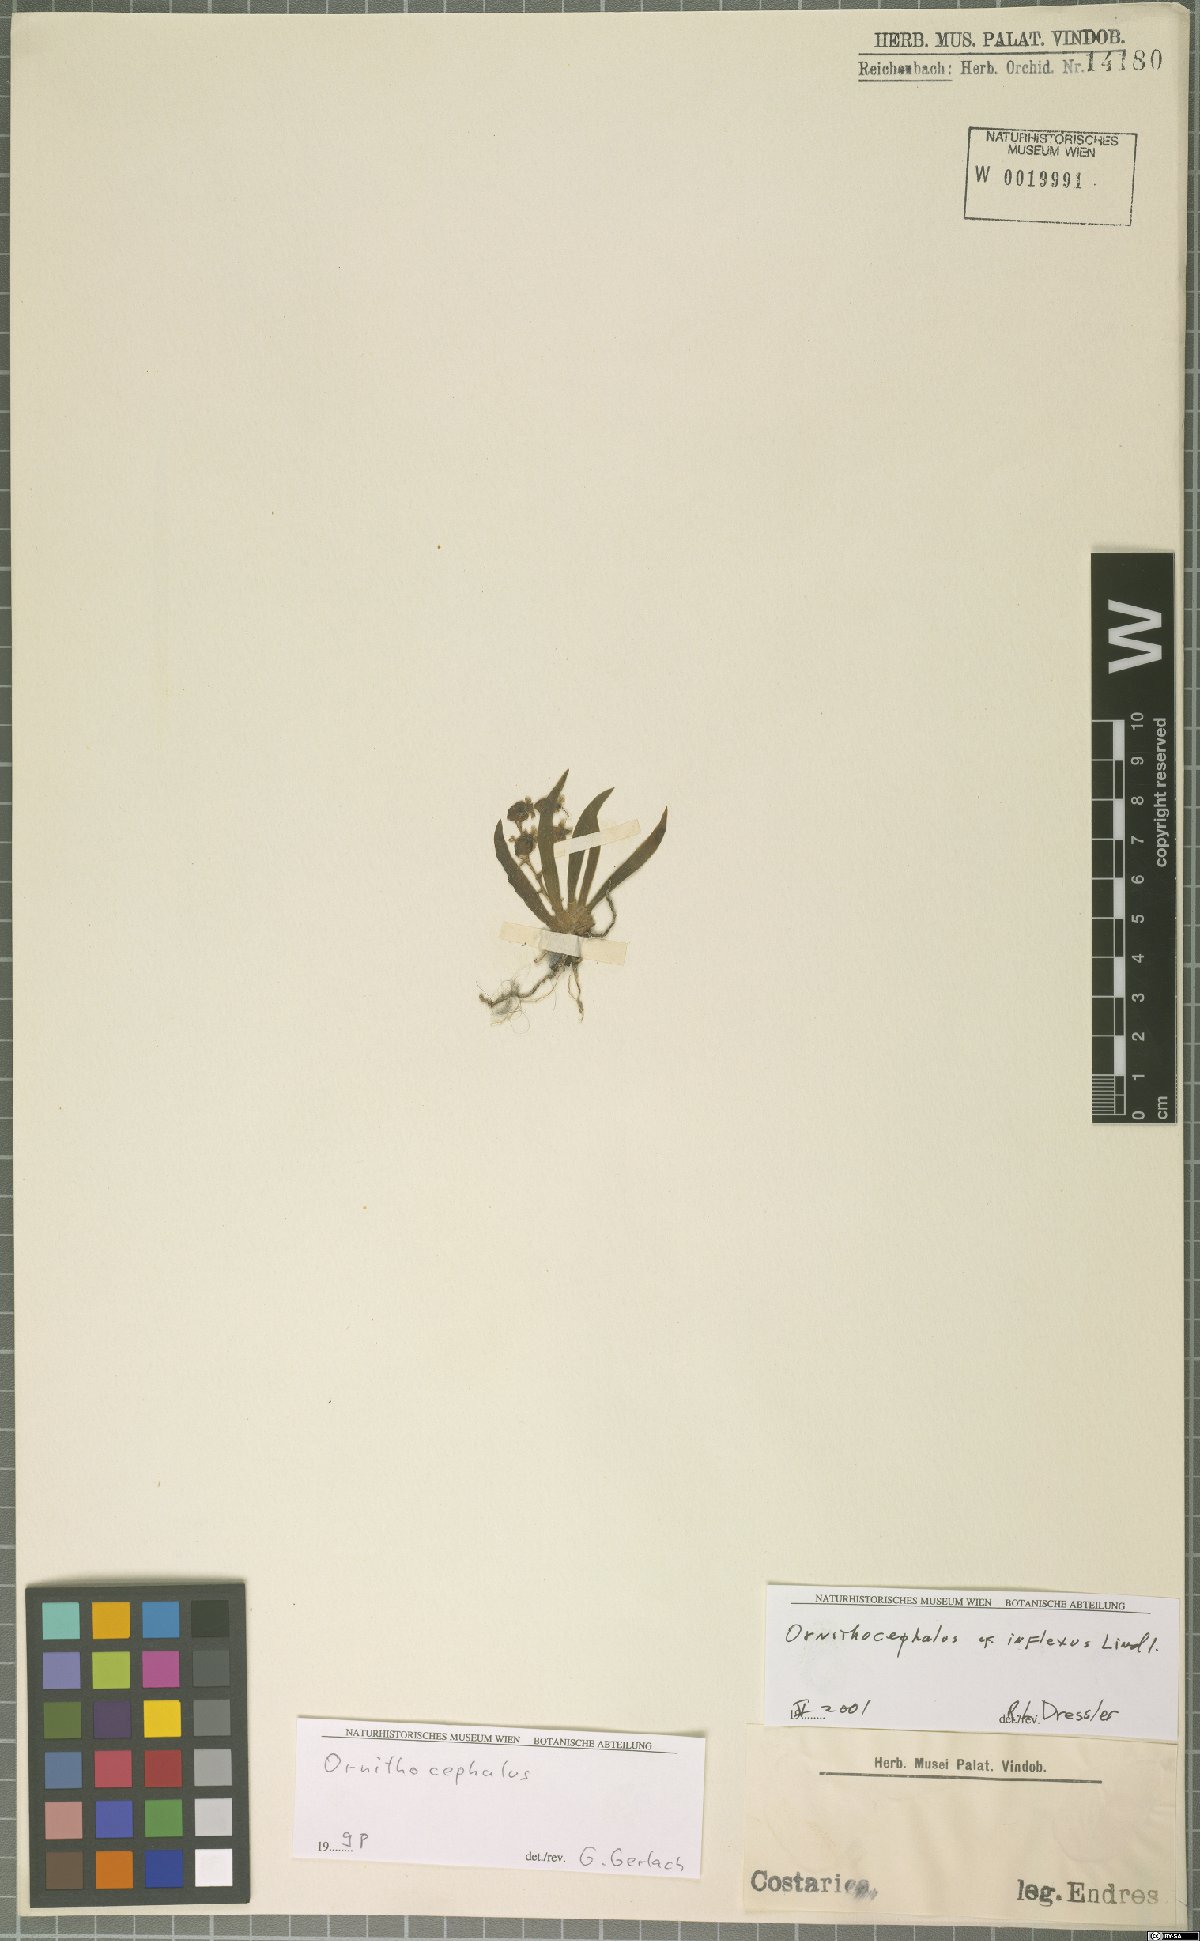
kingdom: Plantae
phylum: Tracheophyta
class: Liliopsida
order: Asparagales
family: Orchidaceae
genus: Ornithocephalus
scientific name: Ornithocephalus inflexus
